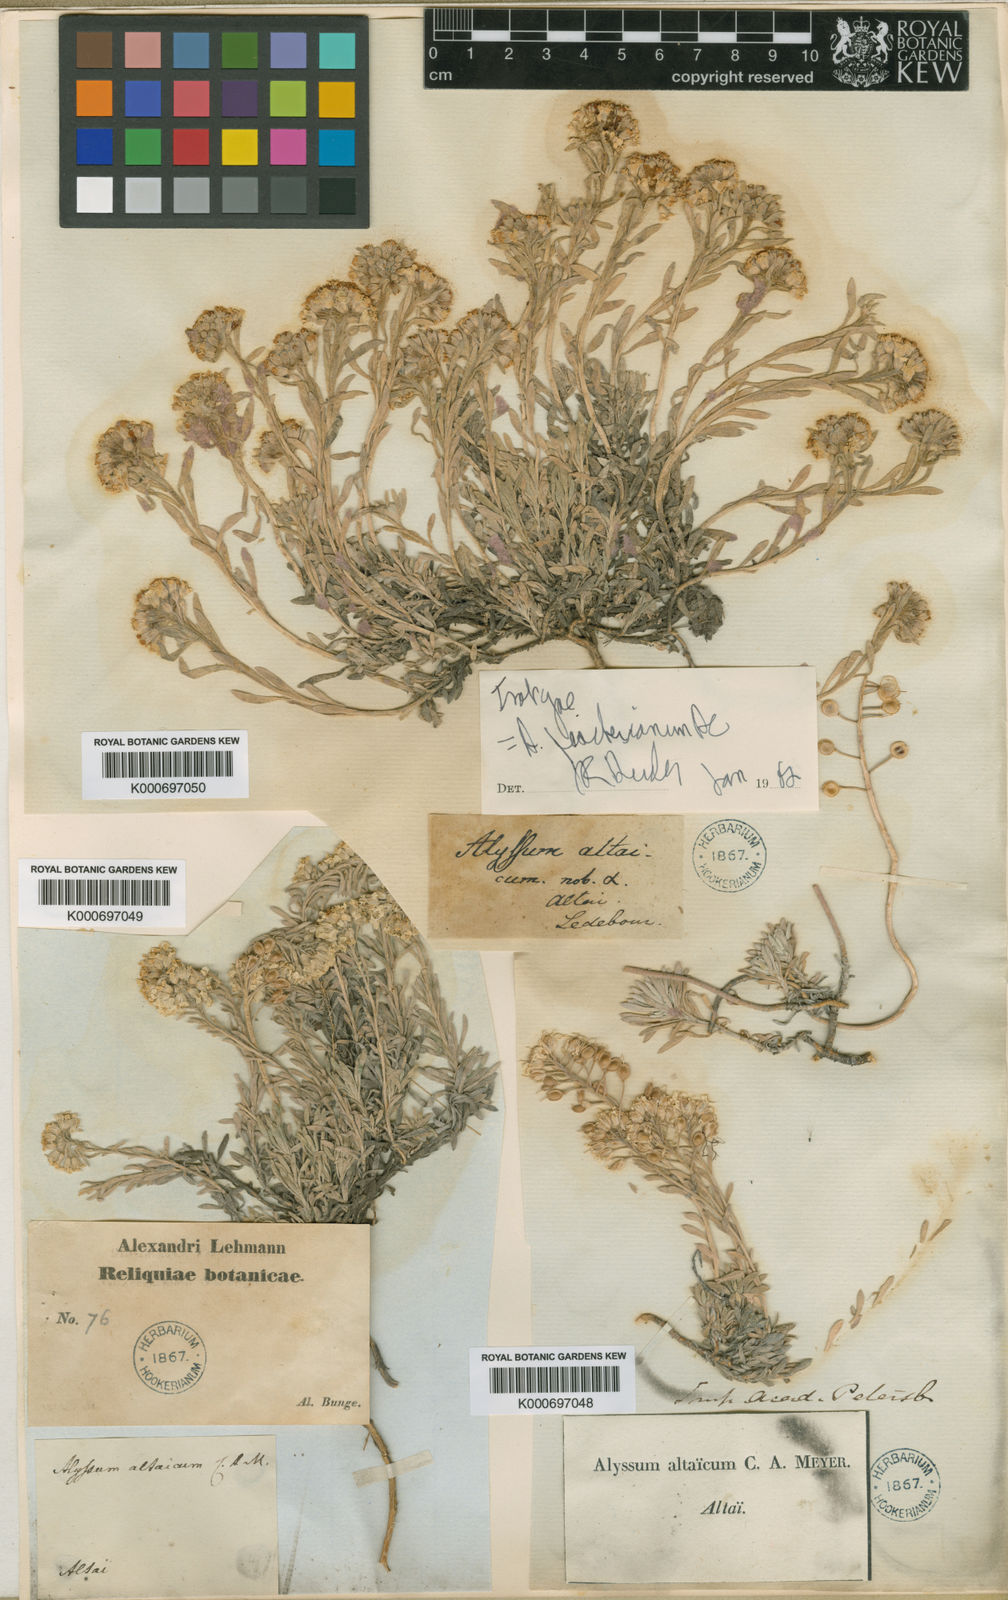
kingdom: Plantae
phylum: Tracheophyta
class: Magnoliopsida
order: Brassicales
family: Brassicaceae
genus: Alyssum
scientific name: Alyssum lenense
